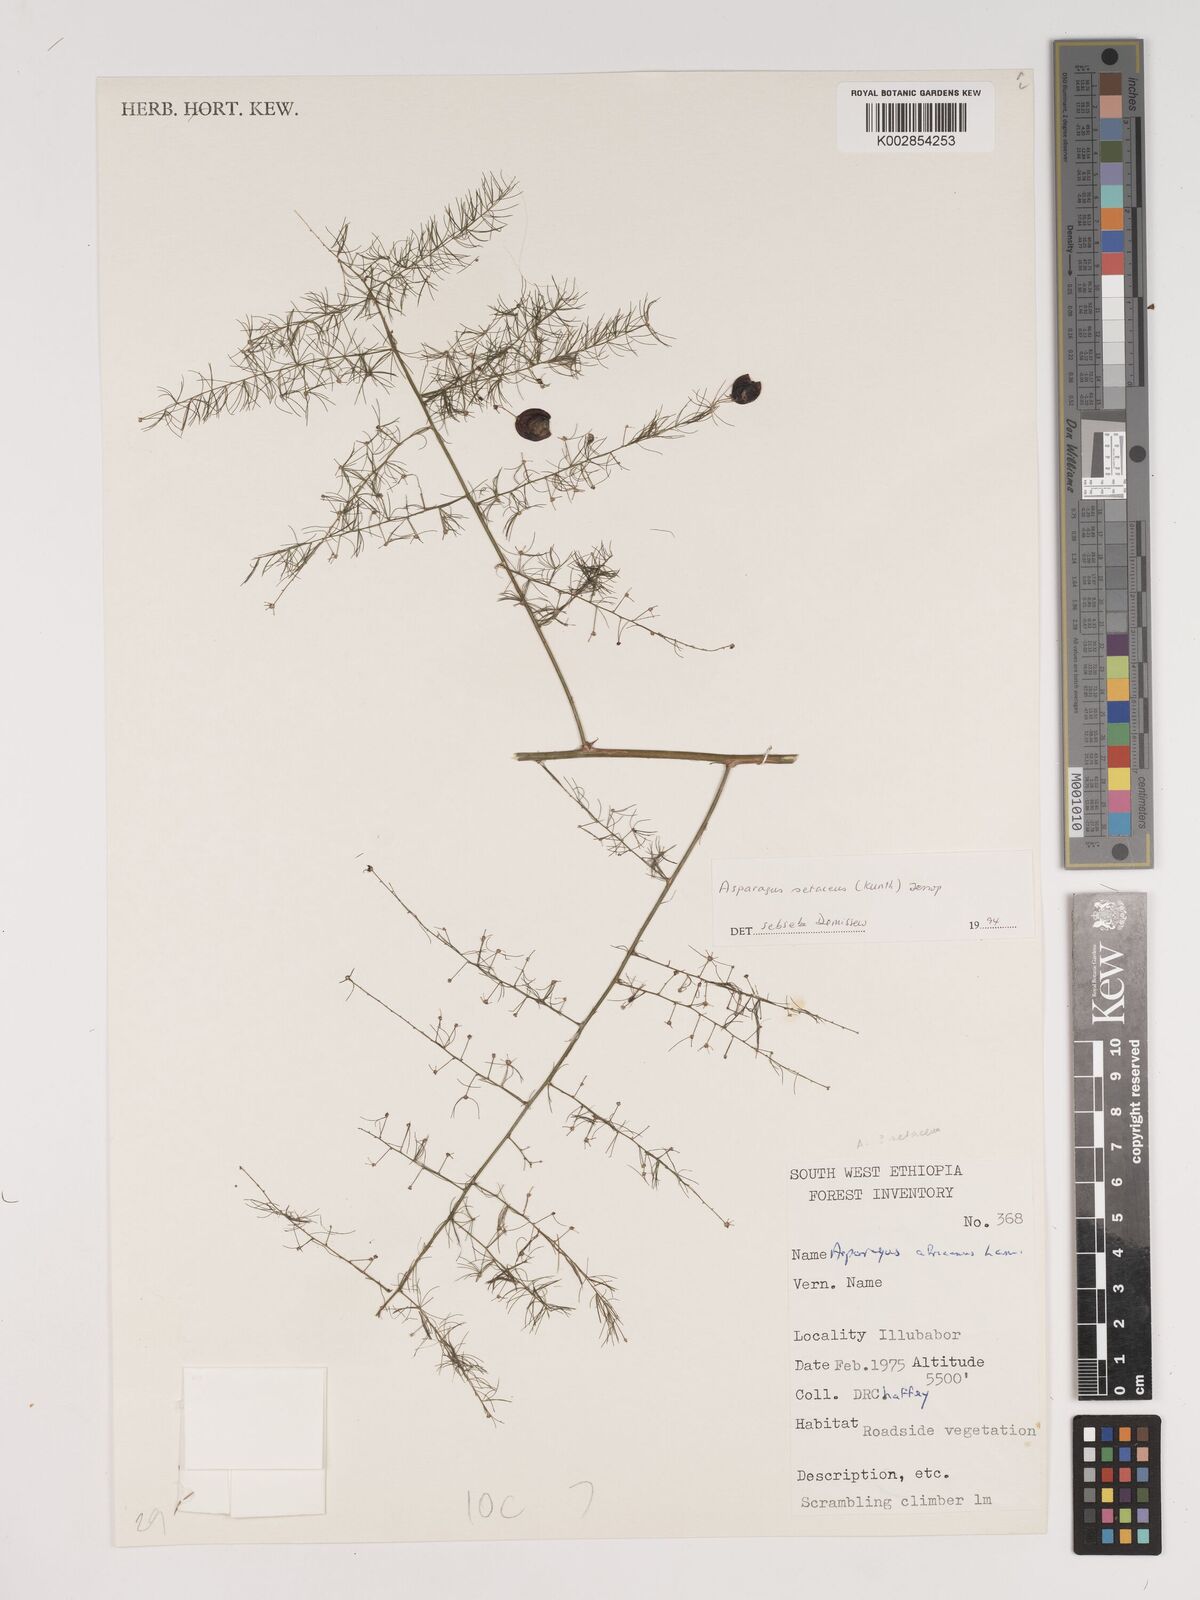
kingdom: Plantae
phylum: Tracheophyta
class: Liliopsida
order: Asparagales
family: Asparagaceae
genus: Asparagus
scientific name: Asparagus setaceus
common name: Common asparagus fern
